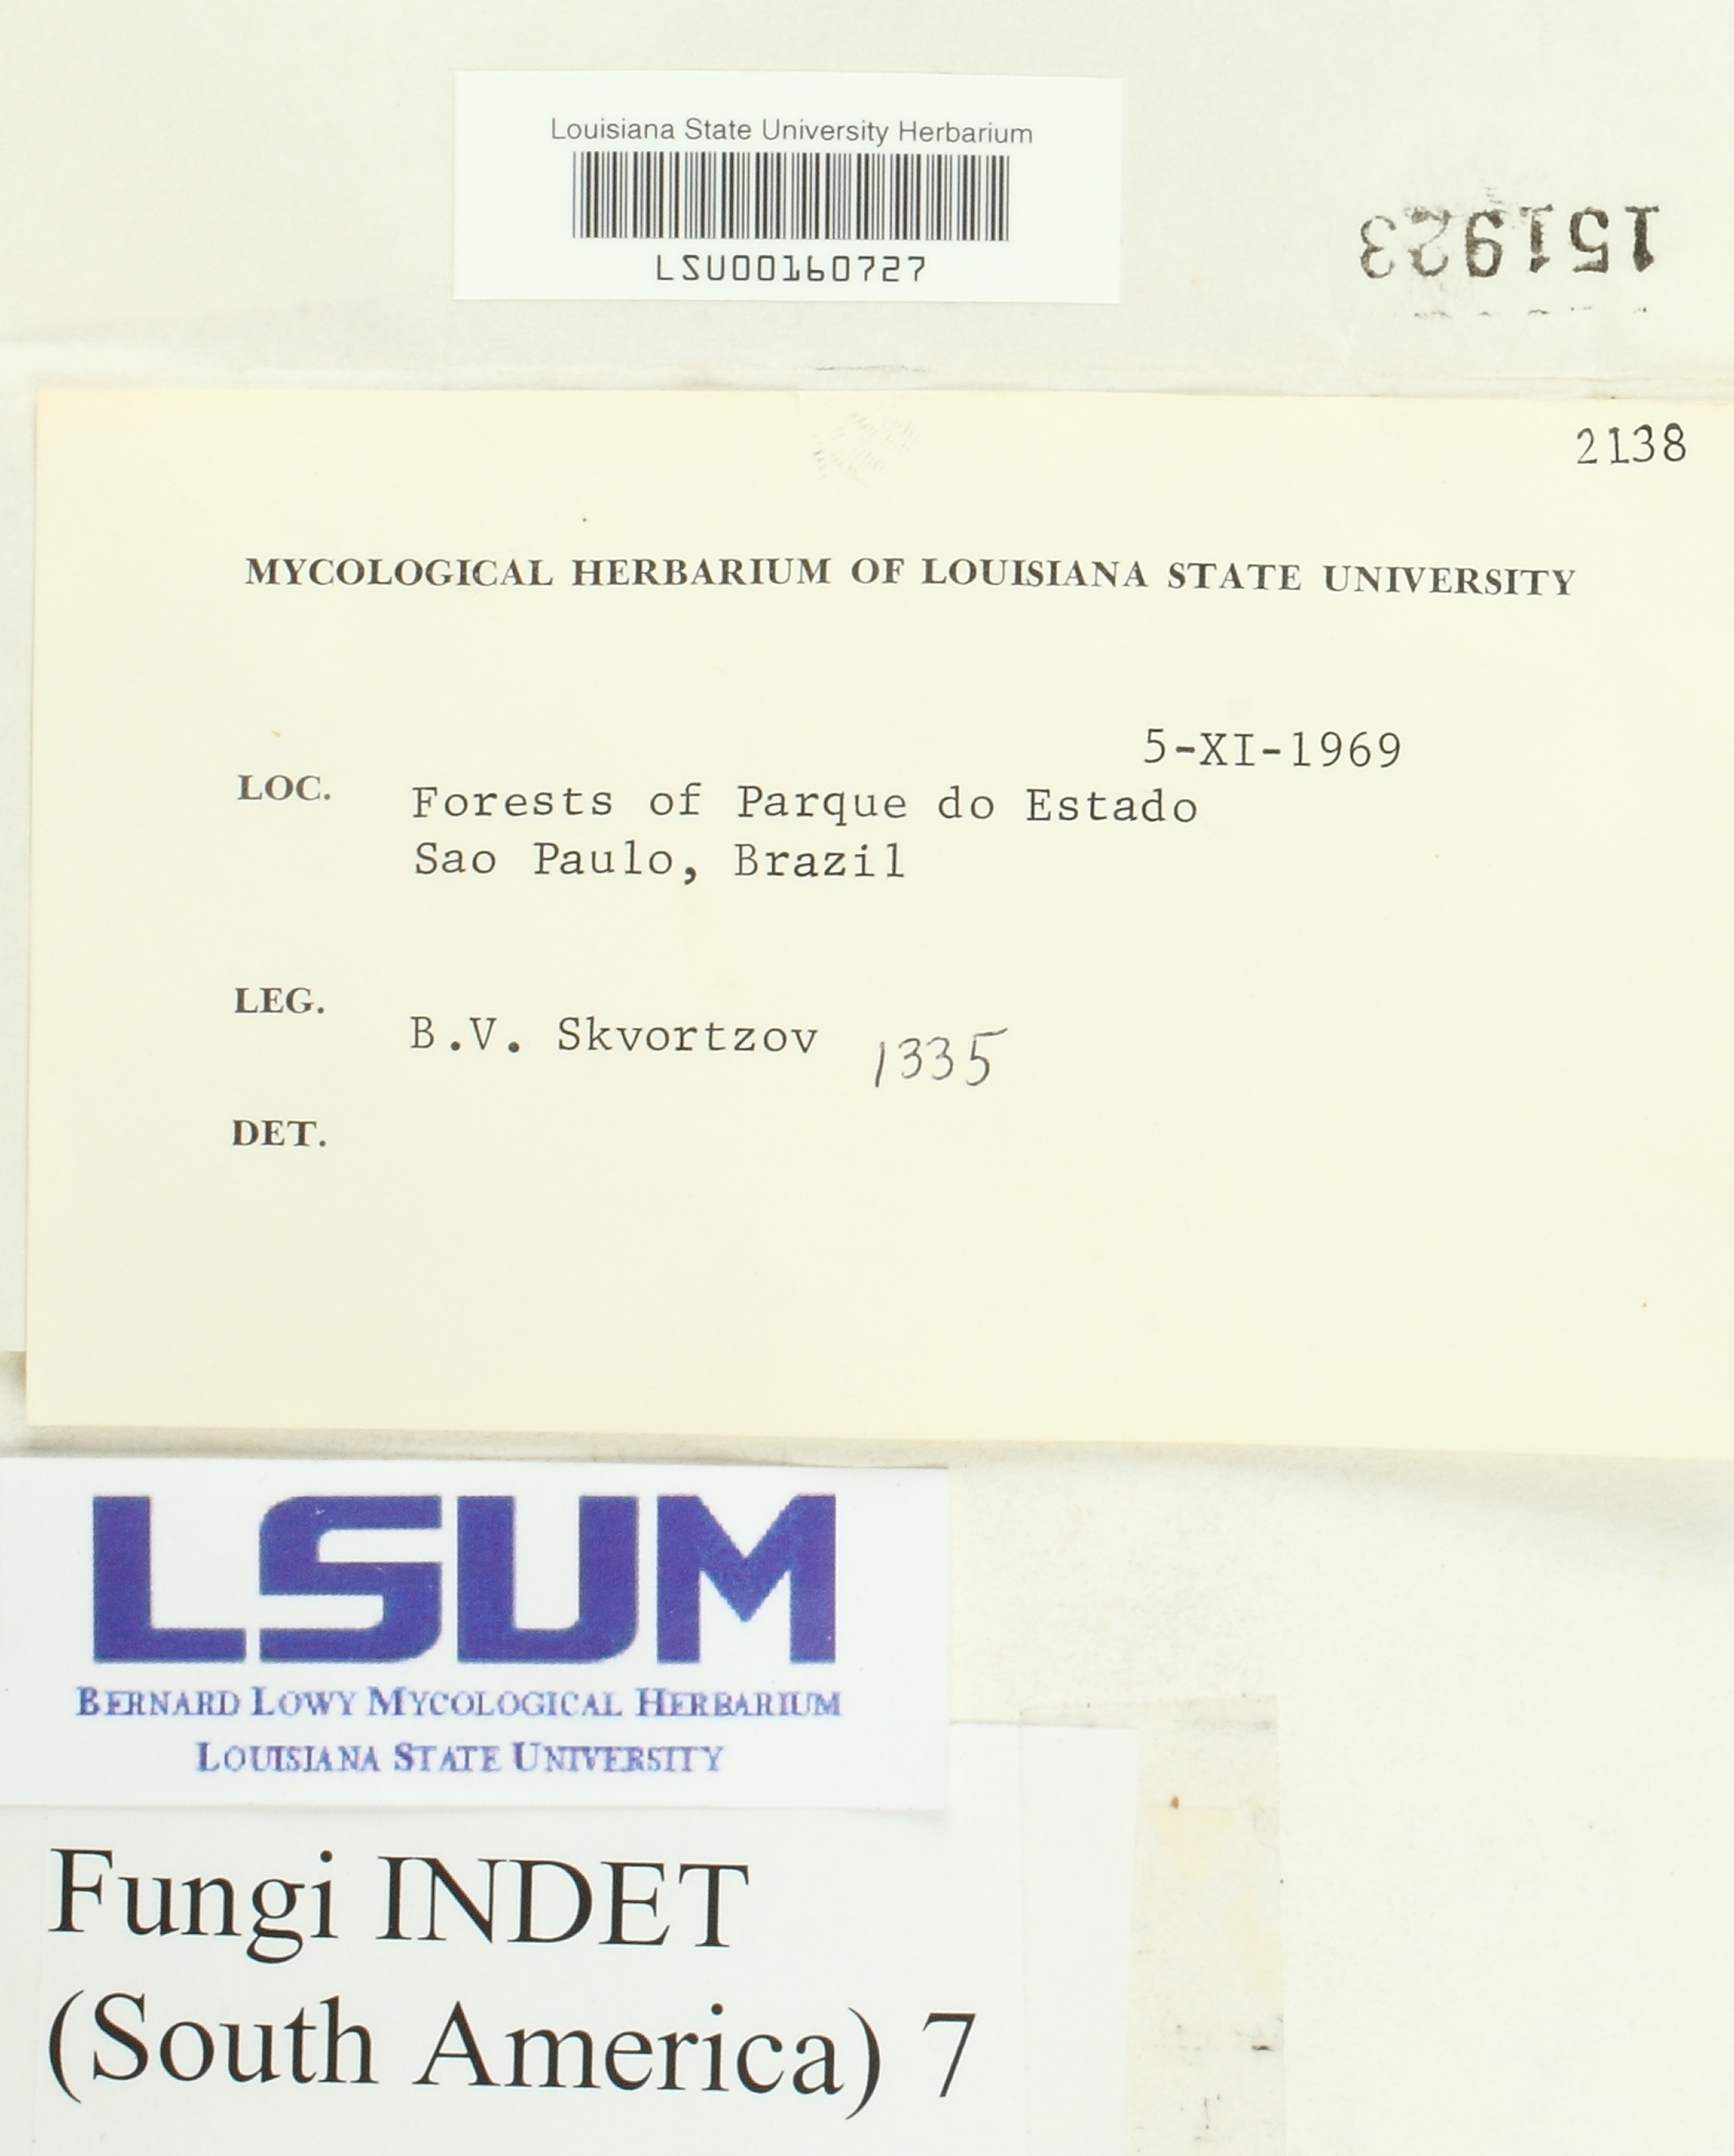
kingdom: Fungi
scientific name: Fungi
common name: Fungi
